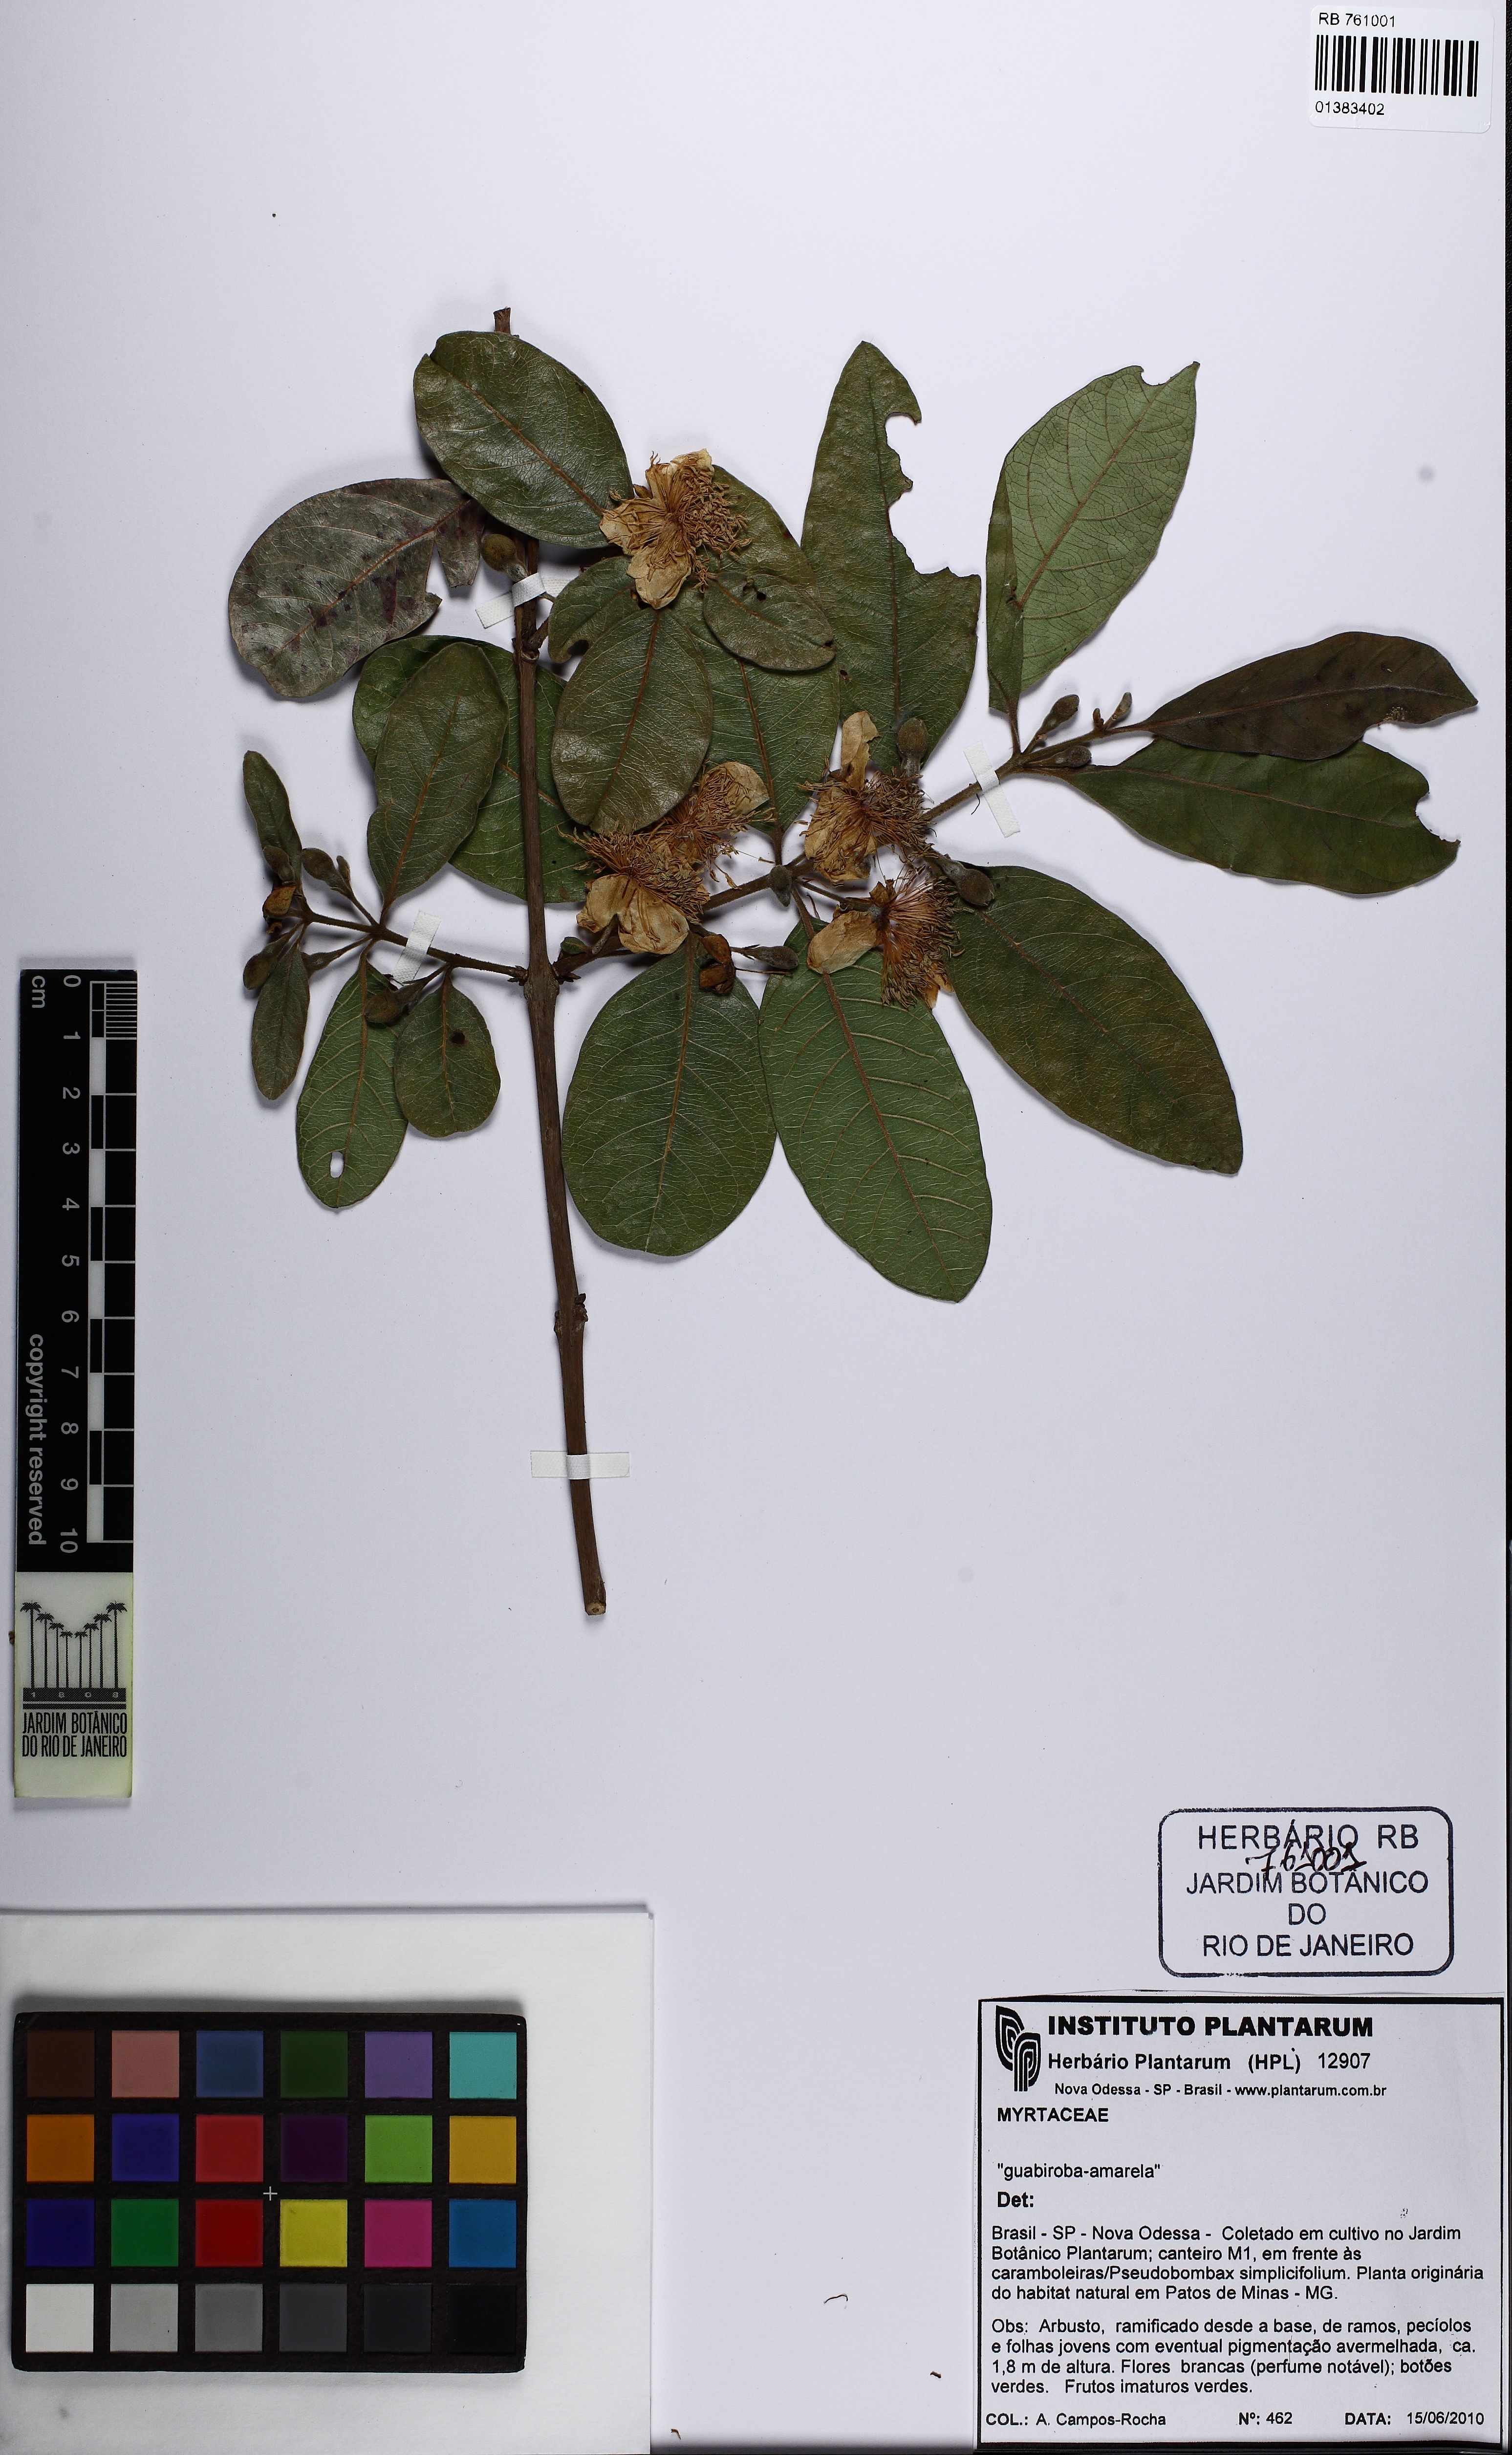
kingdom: Plantae
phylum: Tracheophyta
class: Magnoliopsida
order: Myrtales
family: Myrtaceae
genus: Psidium
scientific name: Psidium guineense
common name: Brazilian guava
